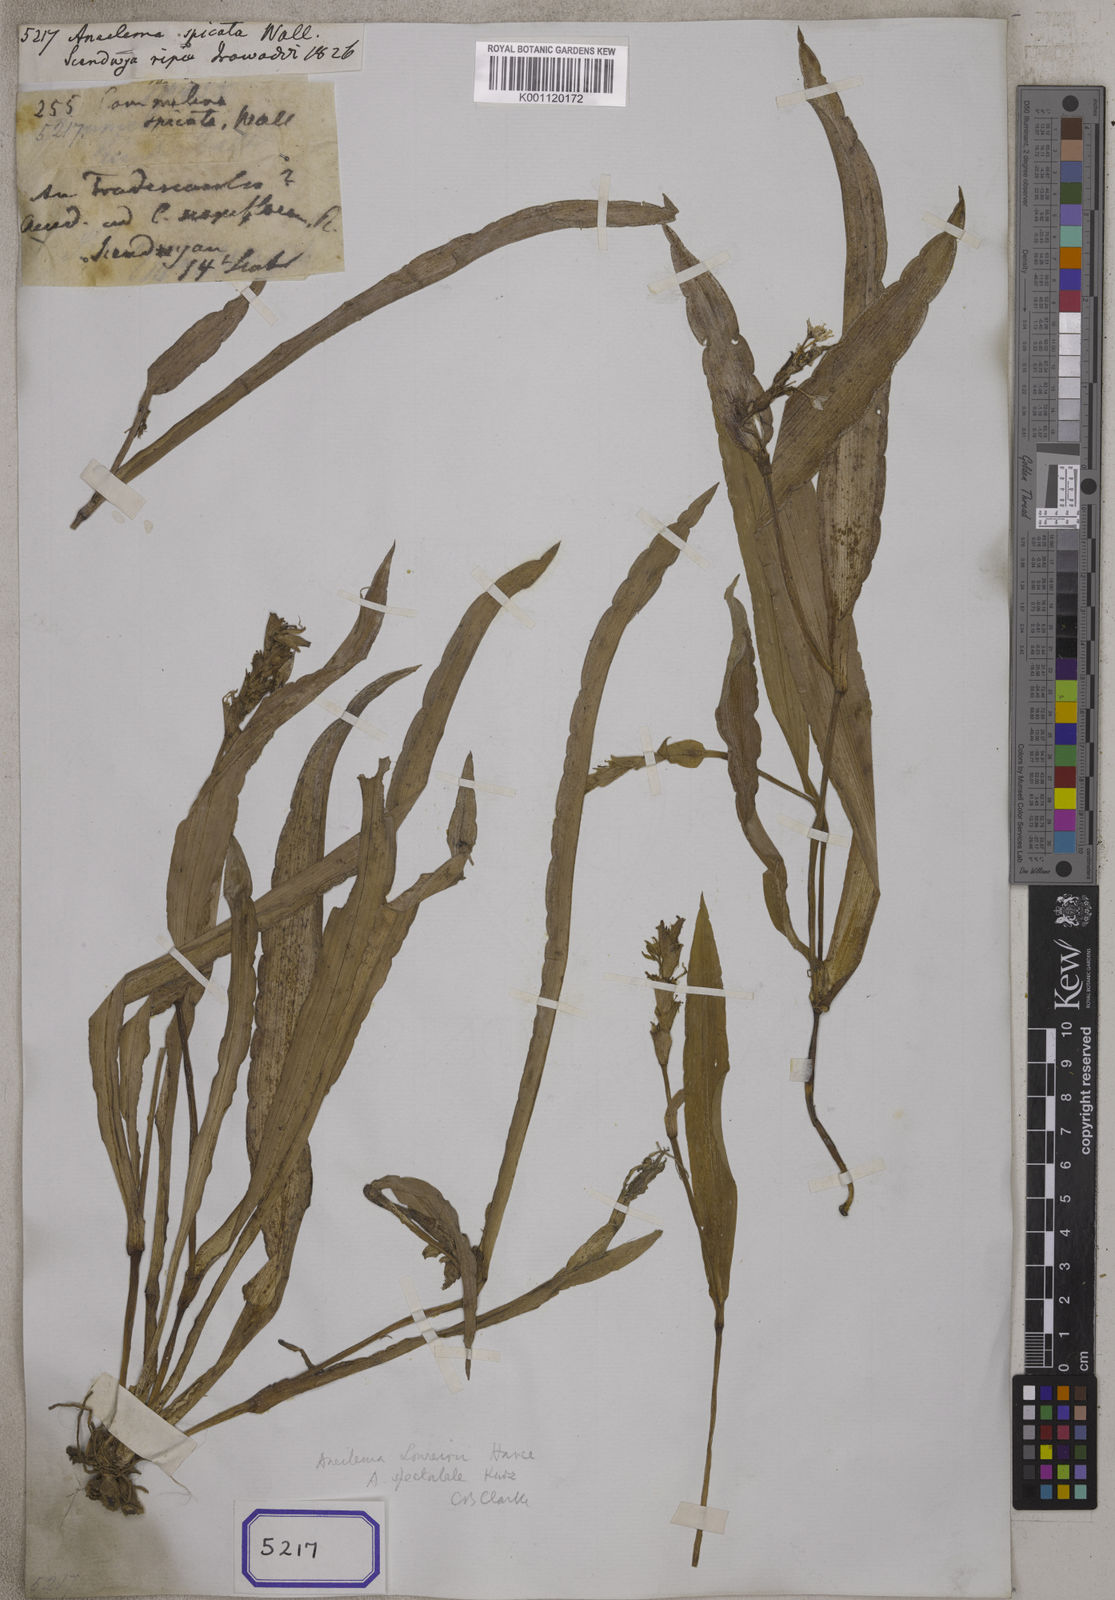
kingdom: Plantae
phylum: Tracheophyta
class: Liliopsida
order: Commelinales
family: Commelinaceae
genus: Aneilema
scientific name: Aneilema
